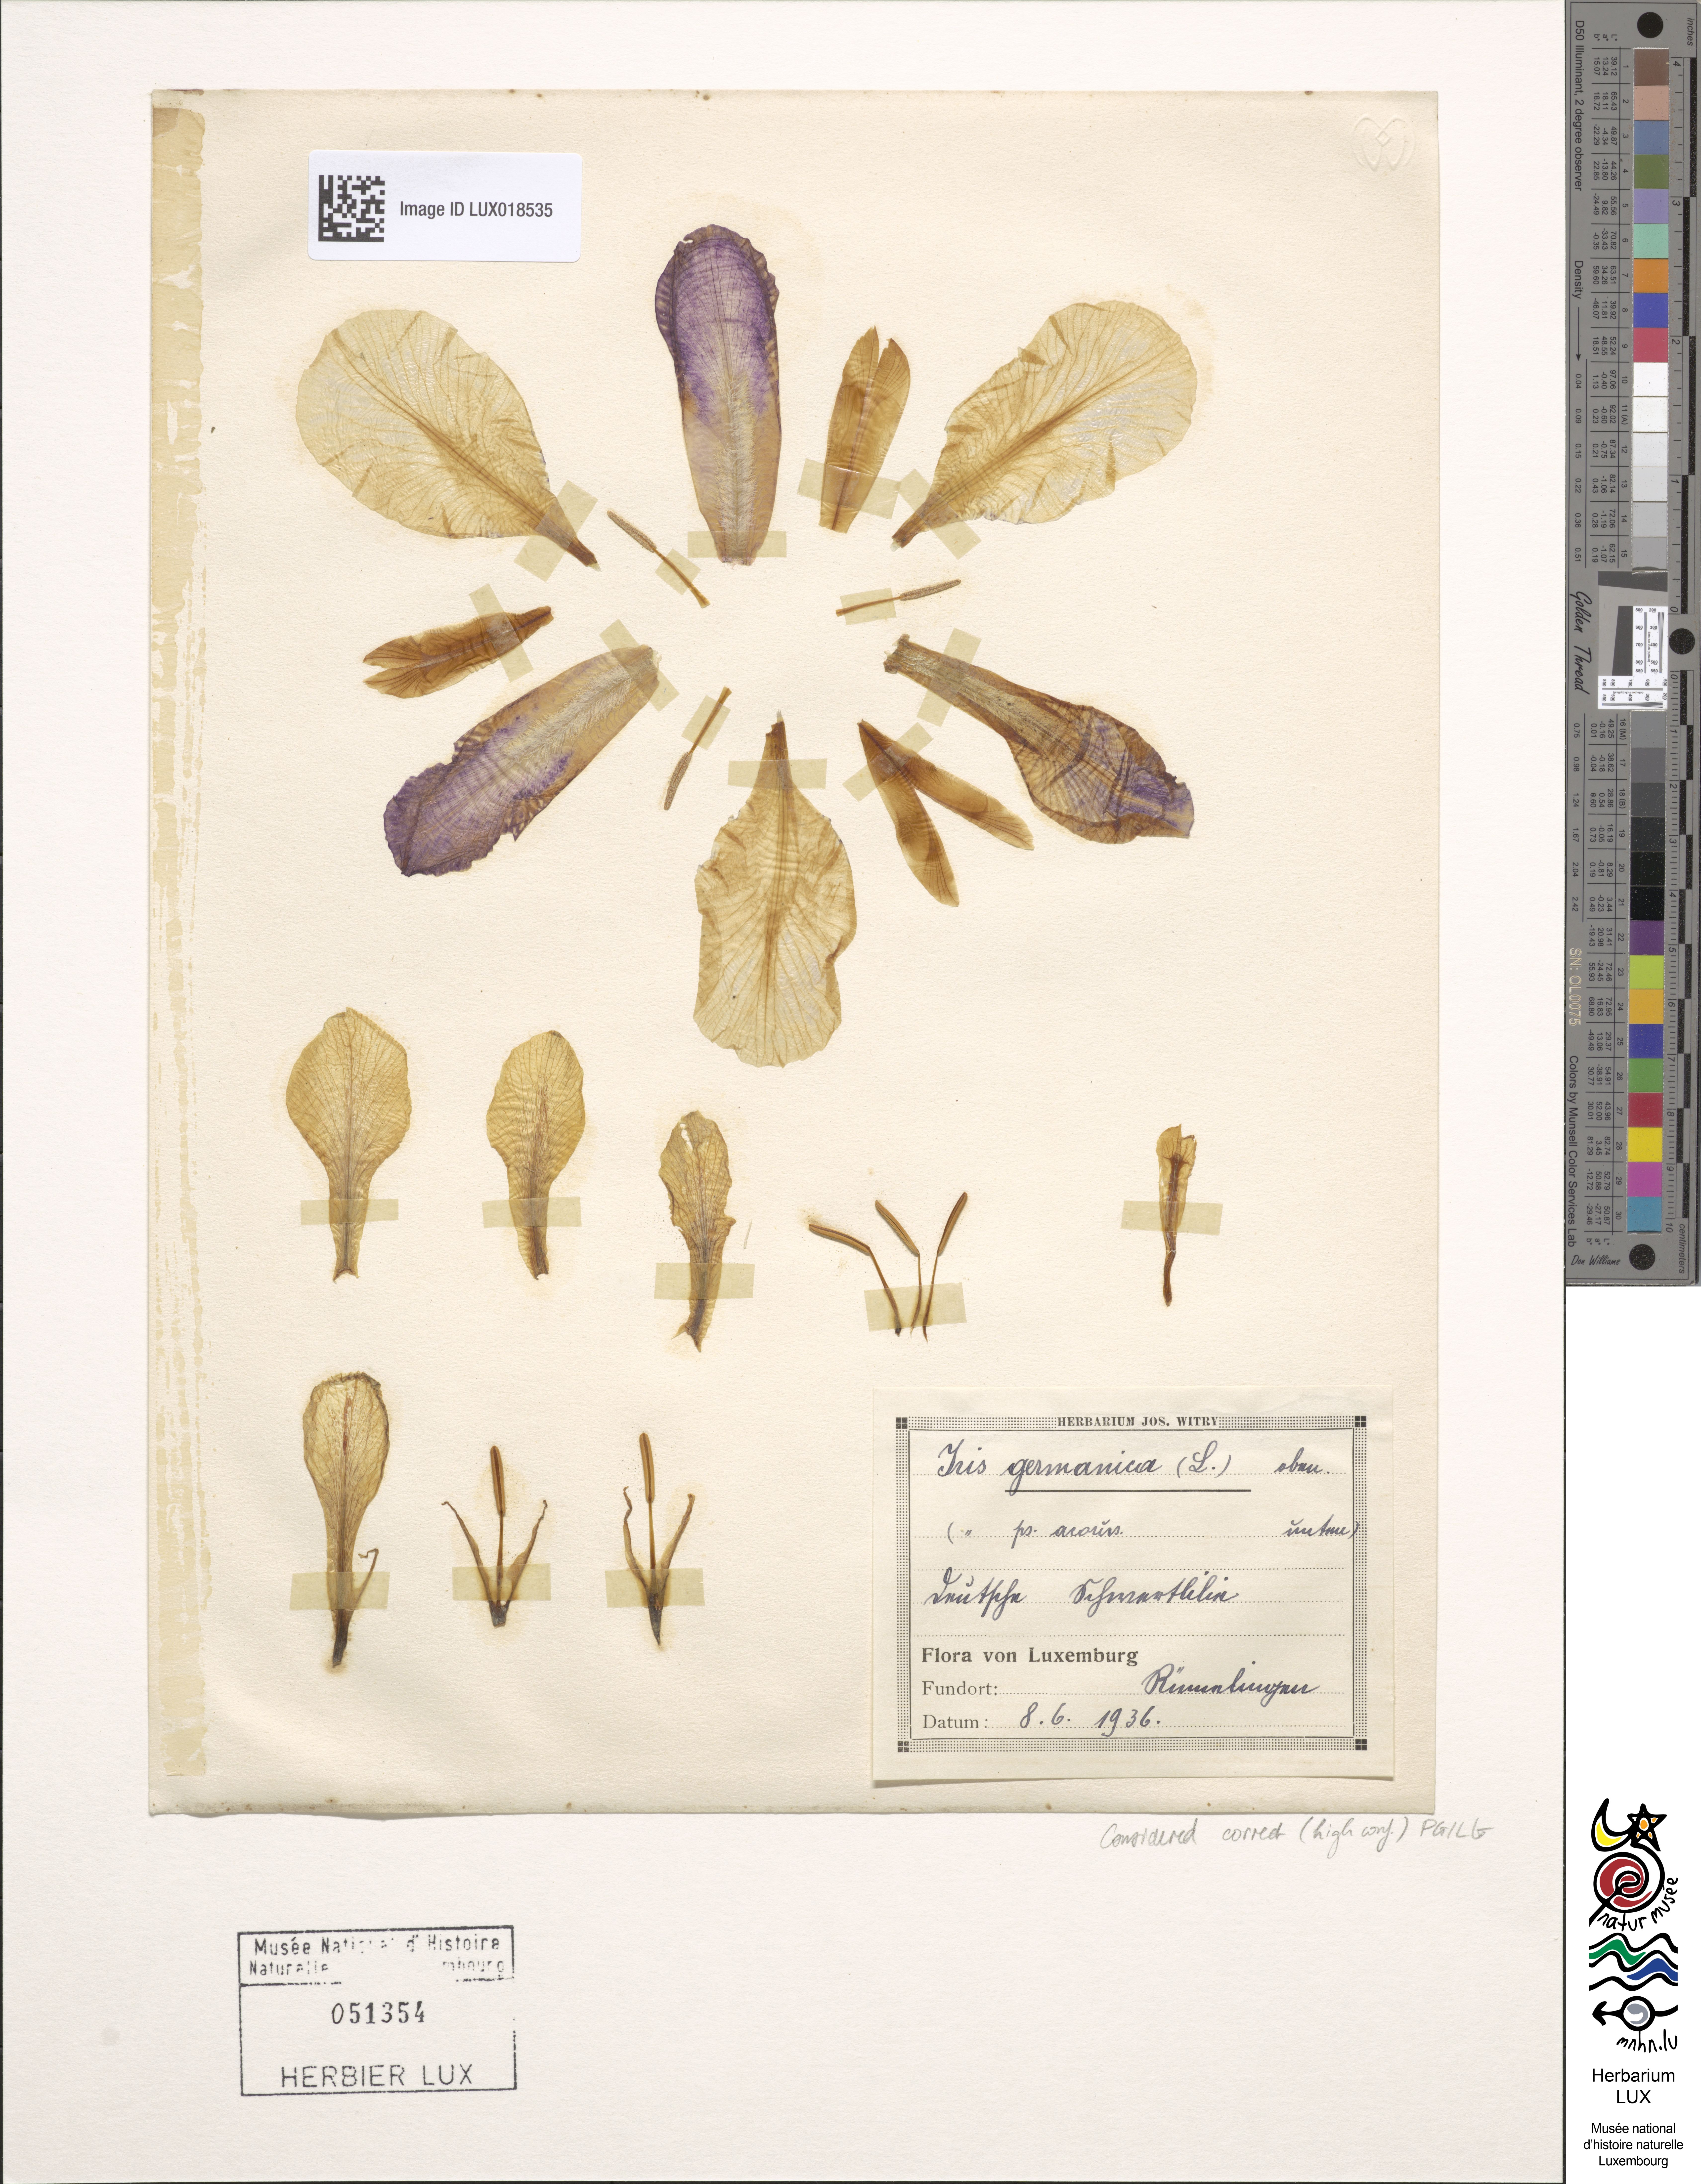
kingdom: Plantae
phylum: Tracheophyta
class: Liliopsida
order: Asparagales
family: Iridaceae
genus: Iris
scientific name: Iris germanica
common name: German iris
